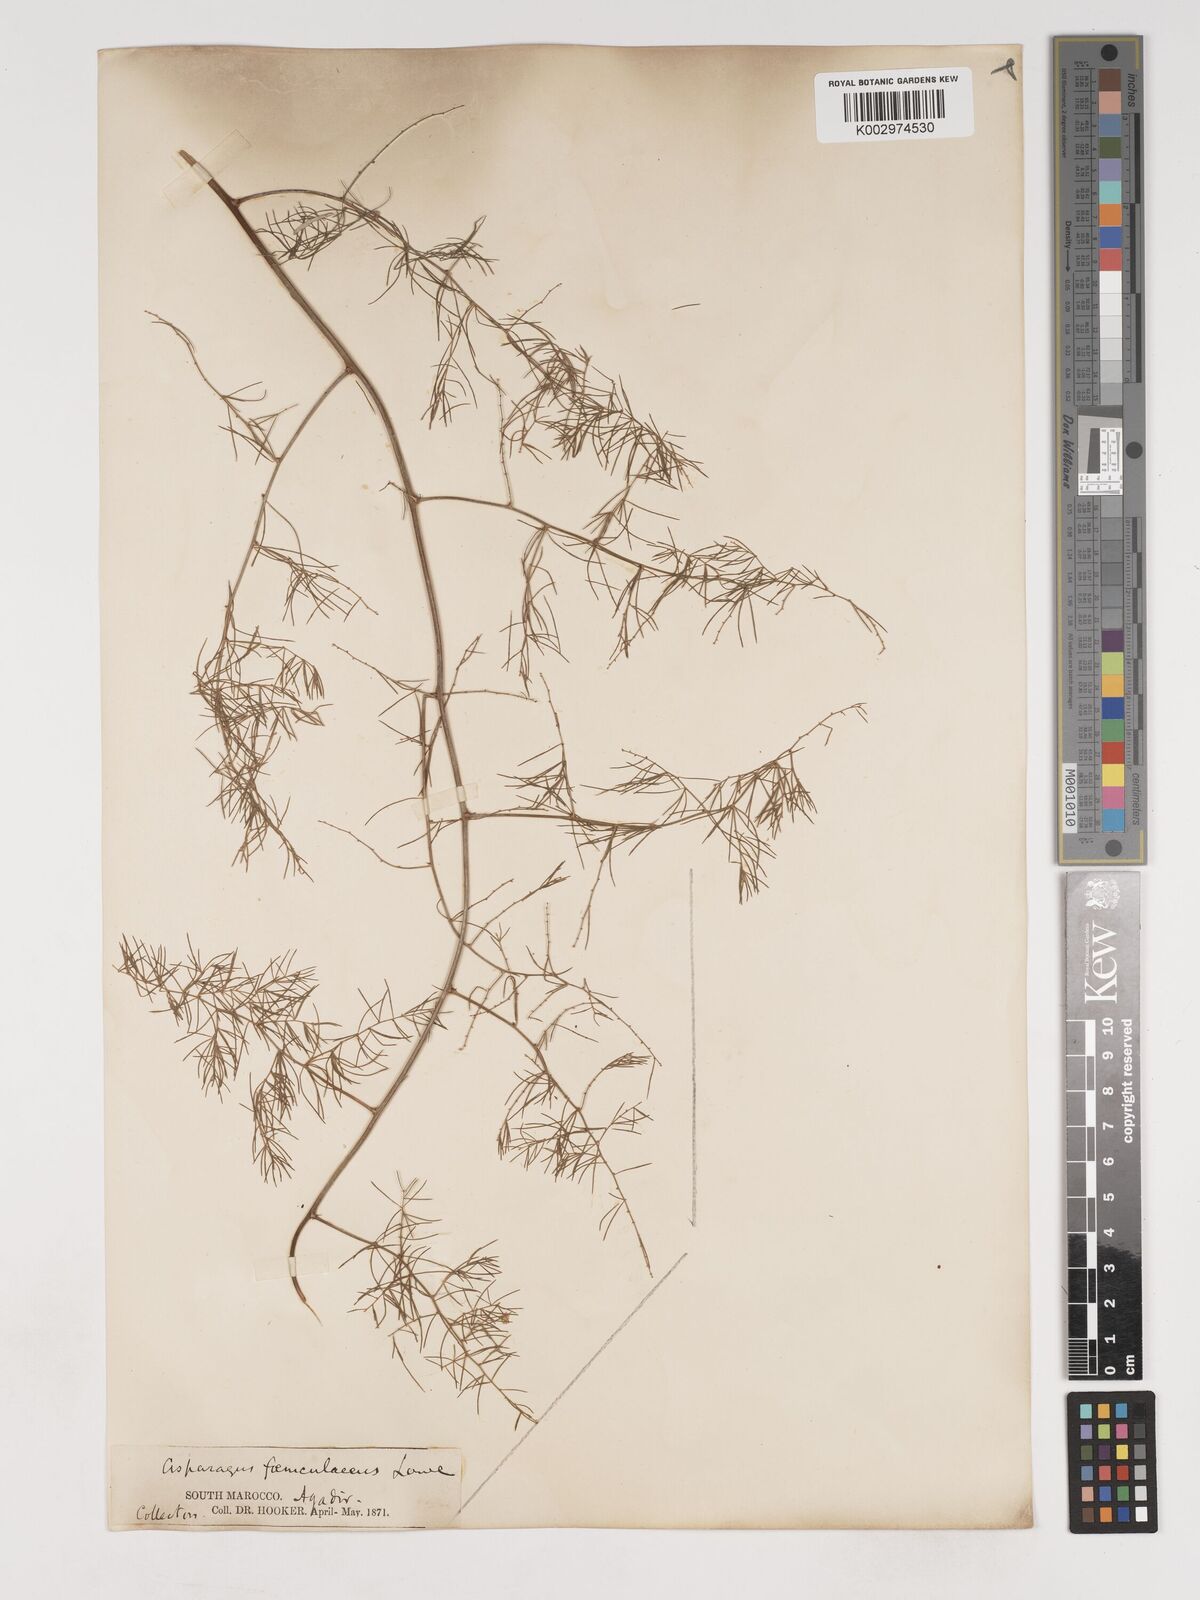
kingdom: Plantae
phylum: Tracheophyta
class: Liliopsida
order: Asparagales
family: Asparagaceae
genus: Asparagus
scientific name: Asparagus altissimus
